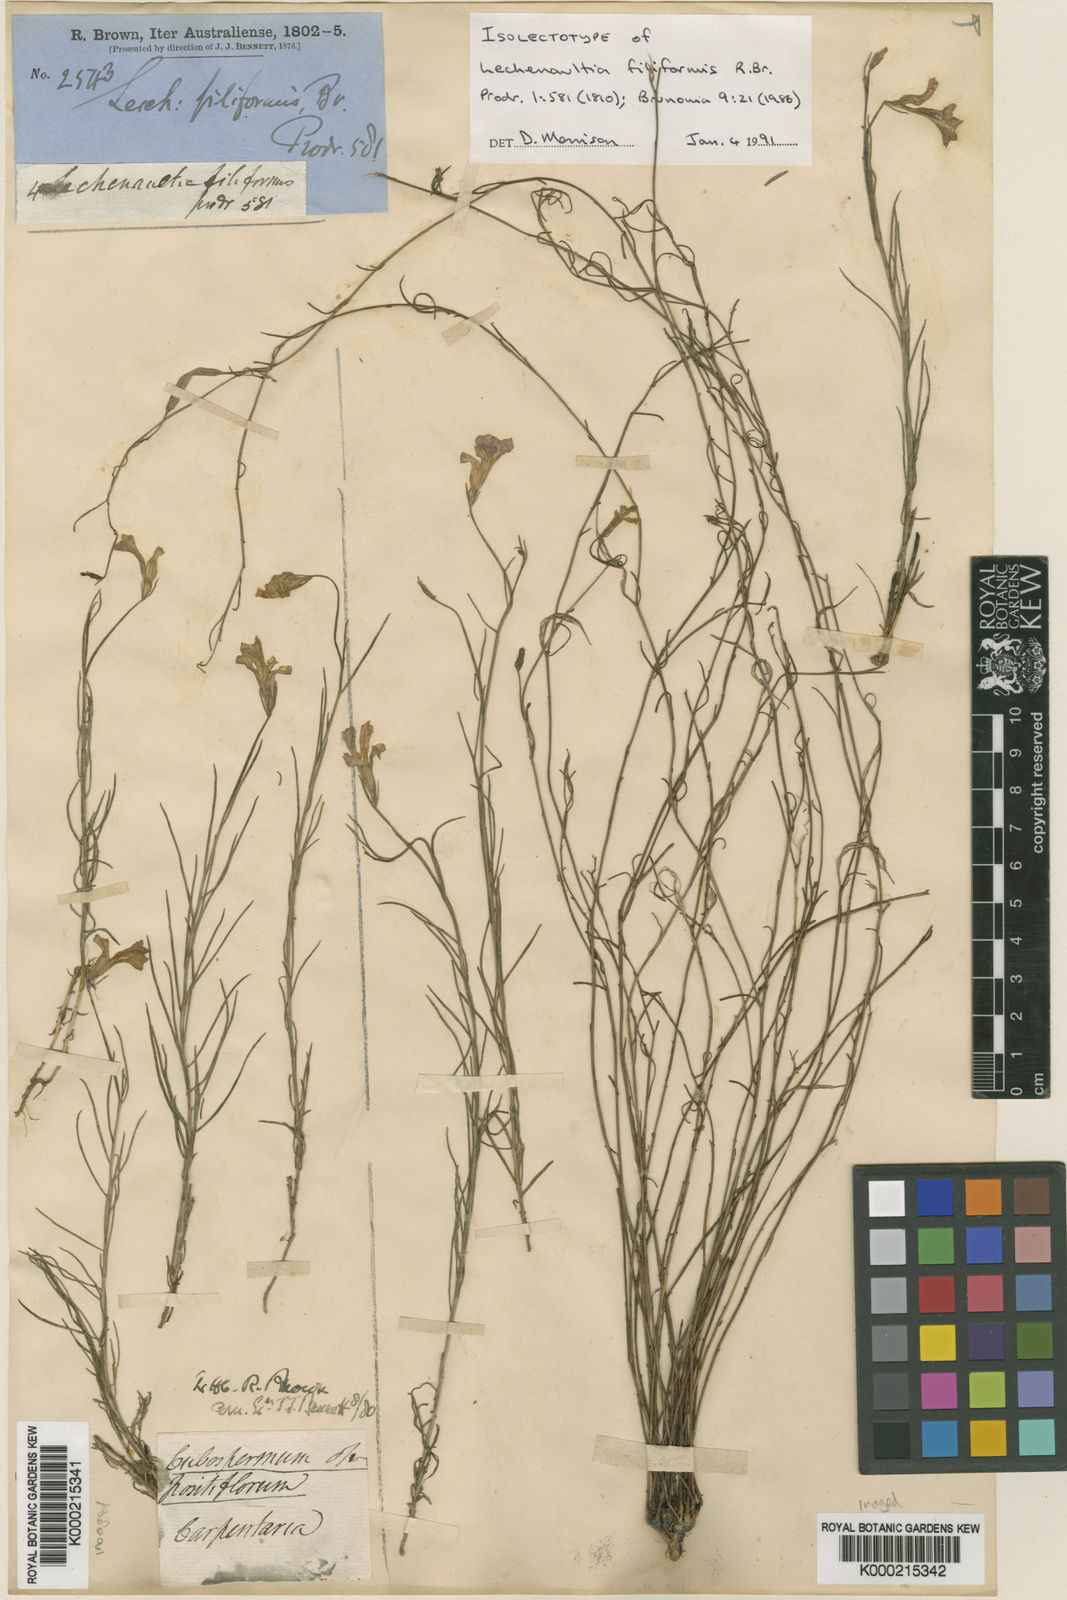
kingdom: Plantae
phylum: Tracheophyta
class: Magnoliopsida
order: Asterales
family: Goodeniaceae
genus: Leschenaultia
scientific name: Leschenaultia filiformis
